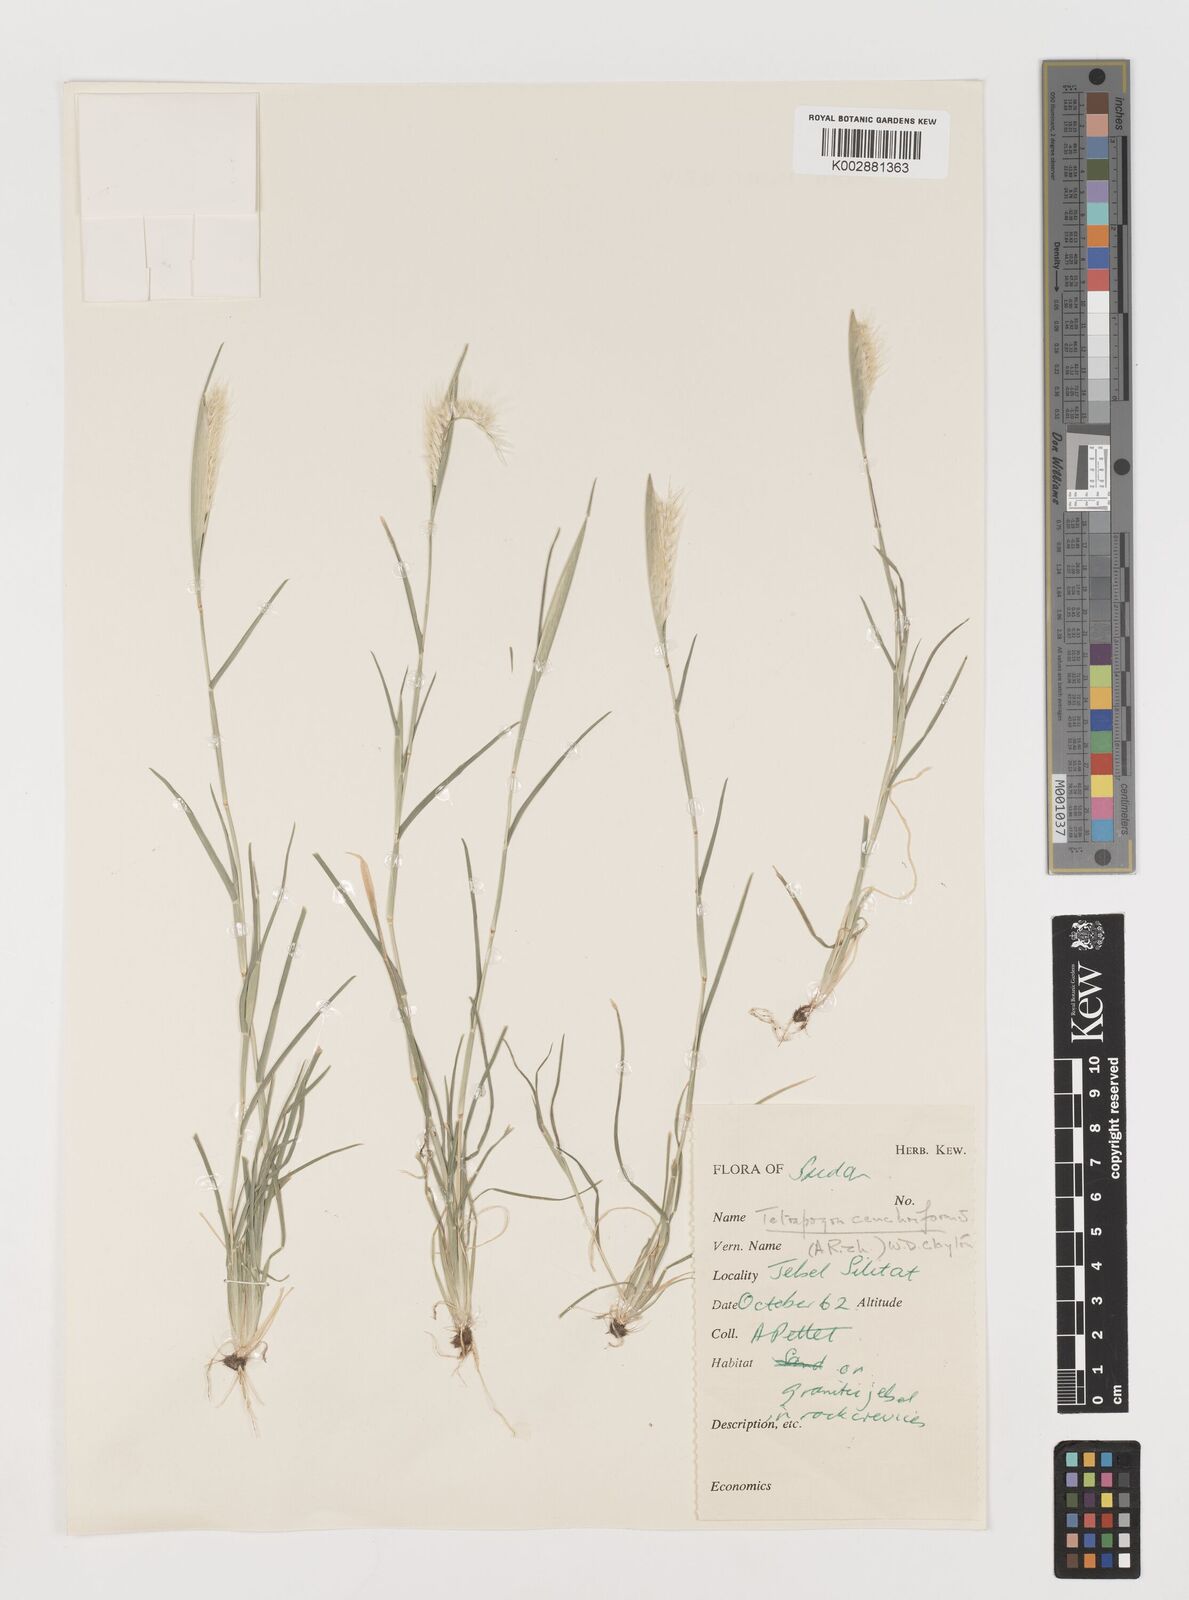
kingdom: Plantae
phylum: Tracheophyta
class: Liliopsida
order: Poales
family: Poaceae
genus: Tetrapogon
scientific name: Tetrapogon cenchriformis
